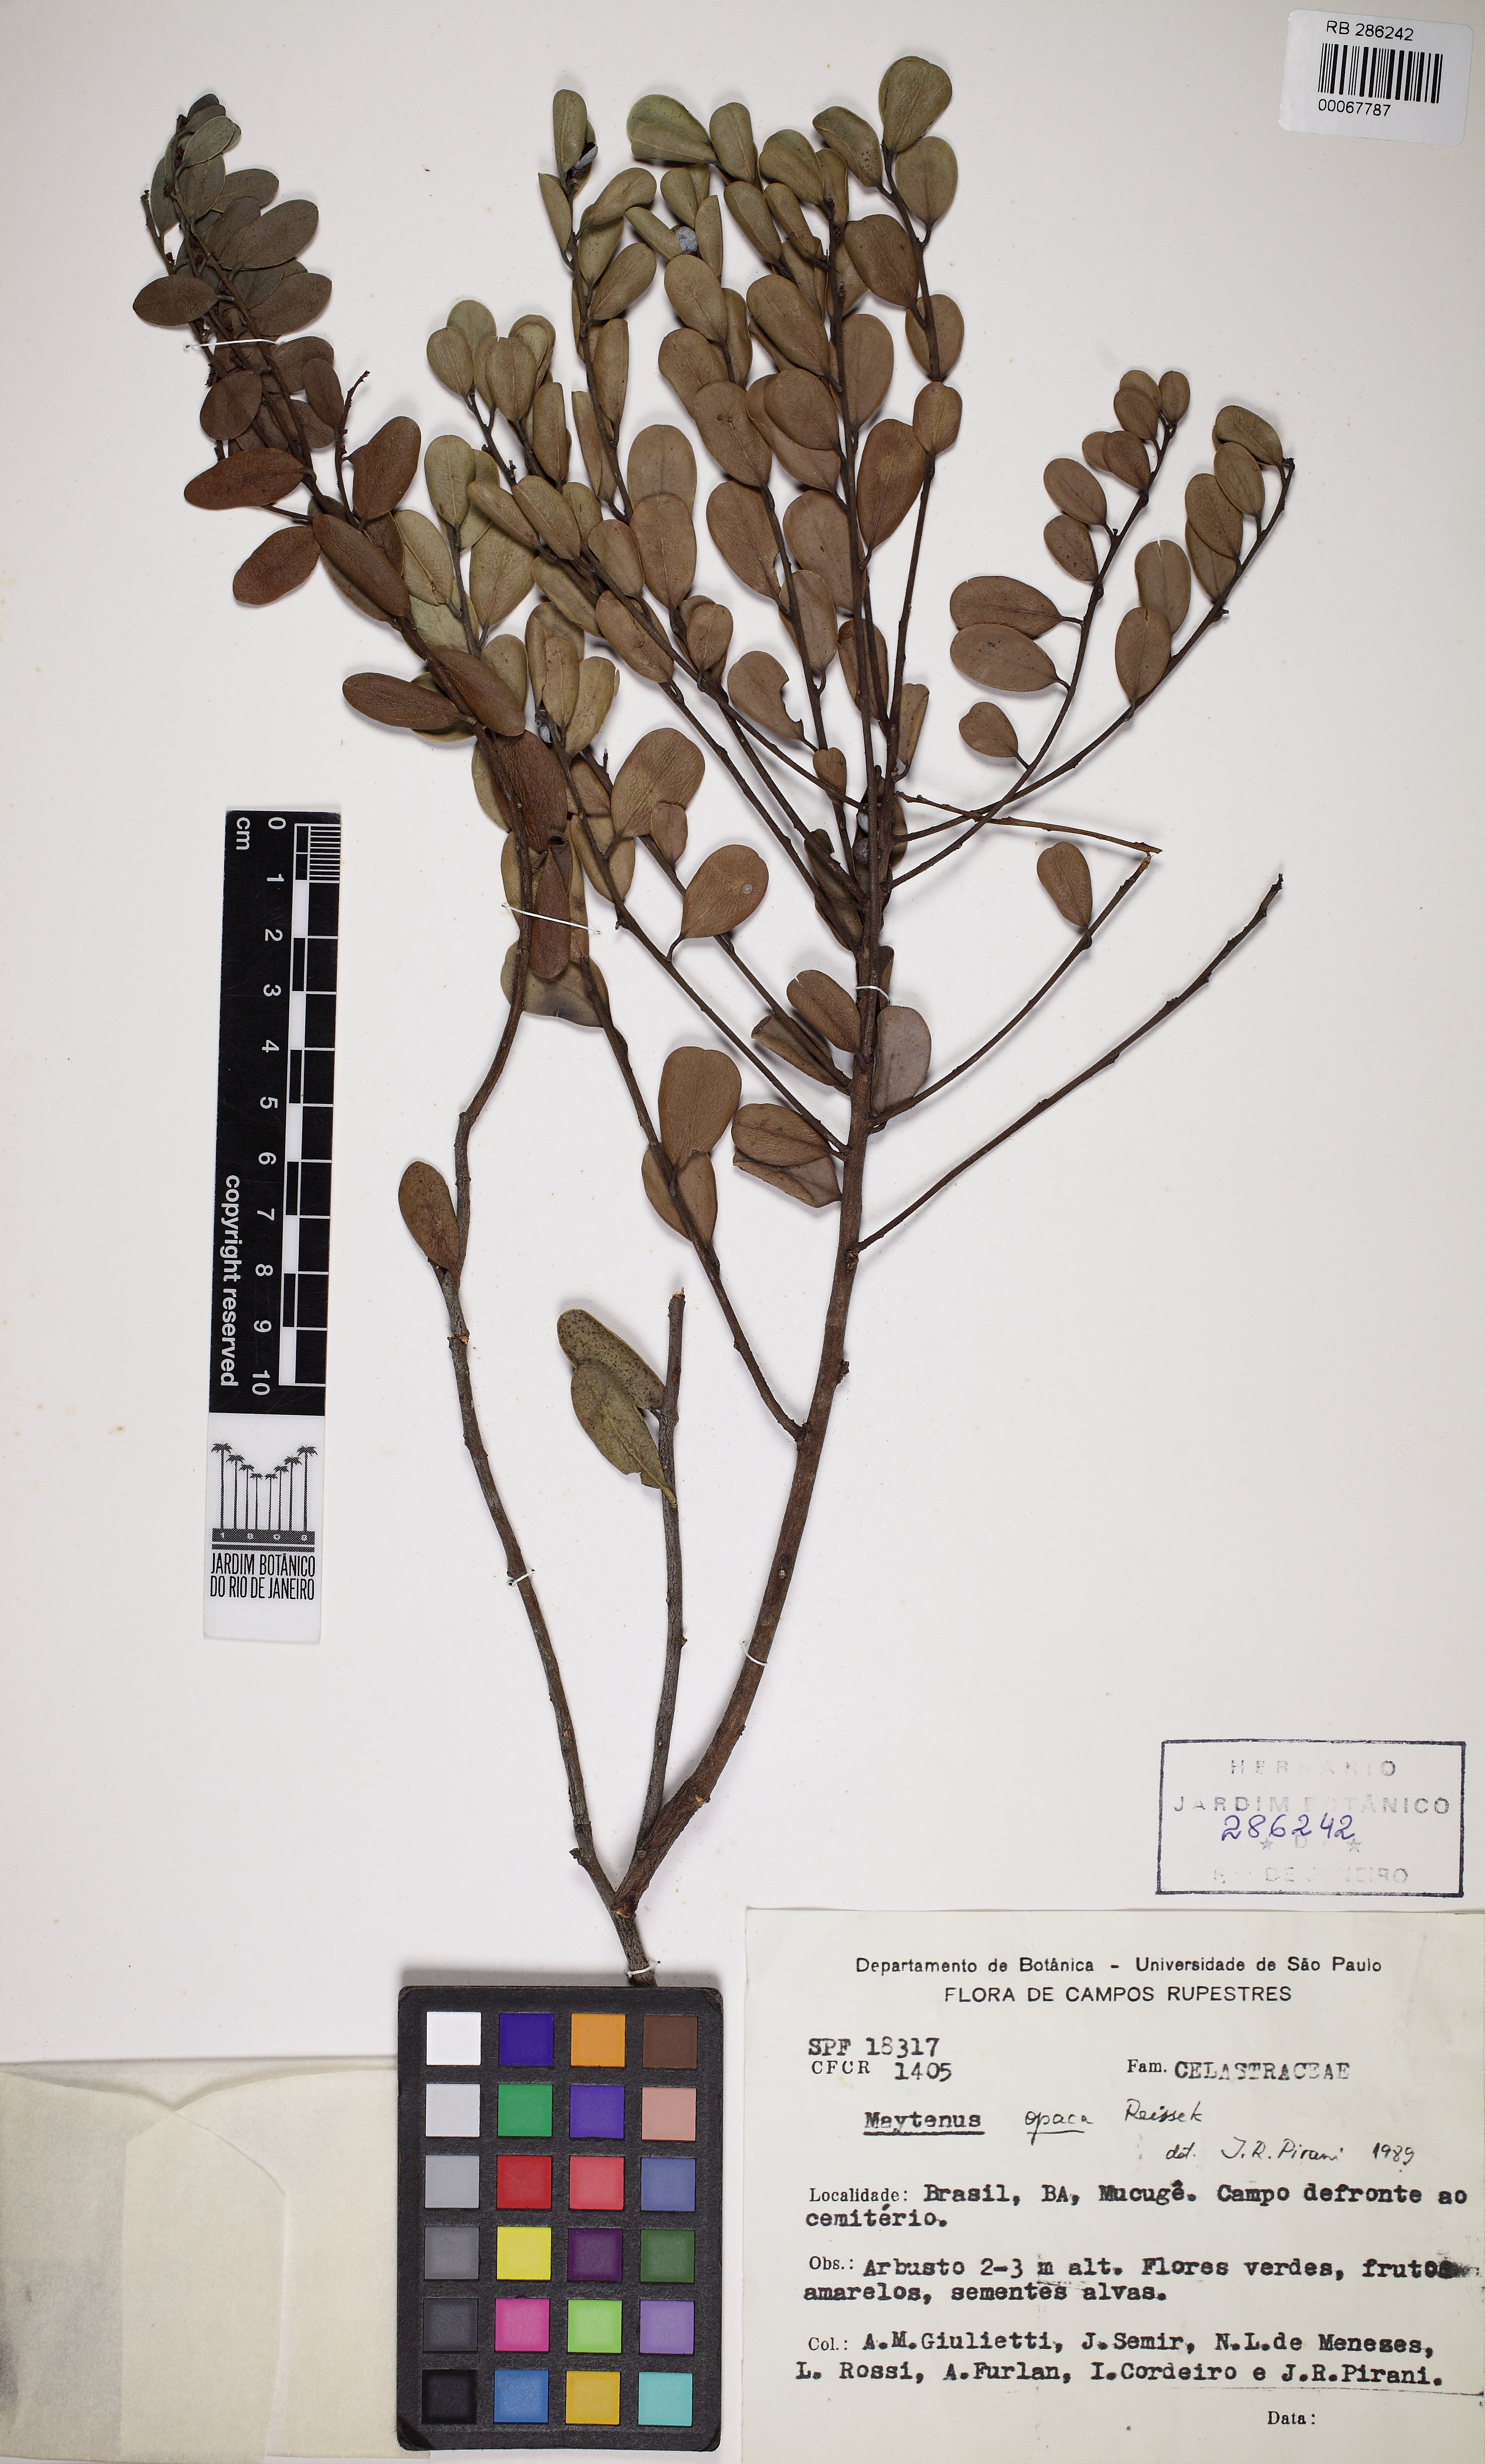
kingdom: Plantae
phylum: Tracheophyta
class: Magnoliopsida
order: Celastrales
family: Celastraceae
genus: Monteverdia
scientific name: Monteverdia opaca
